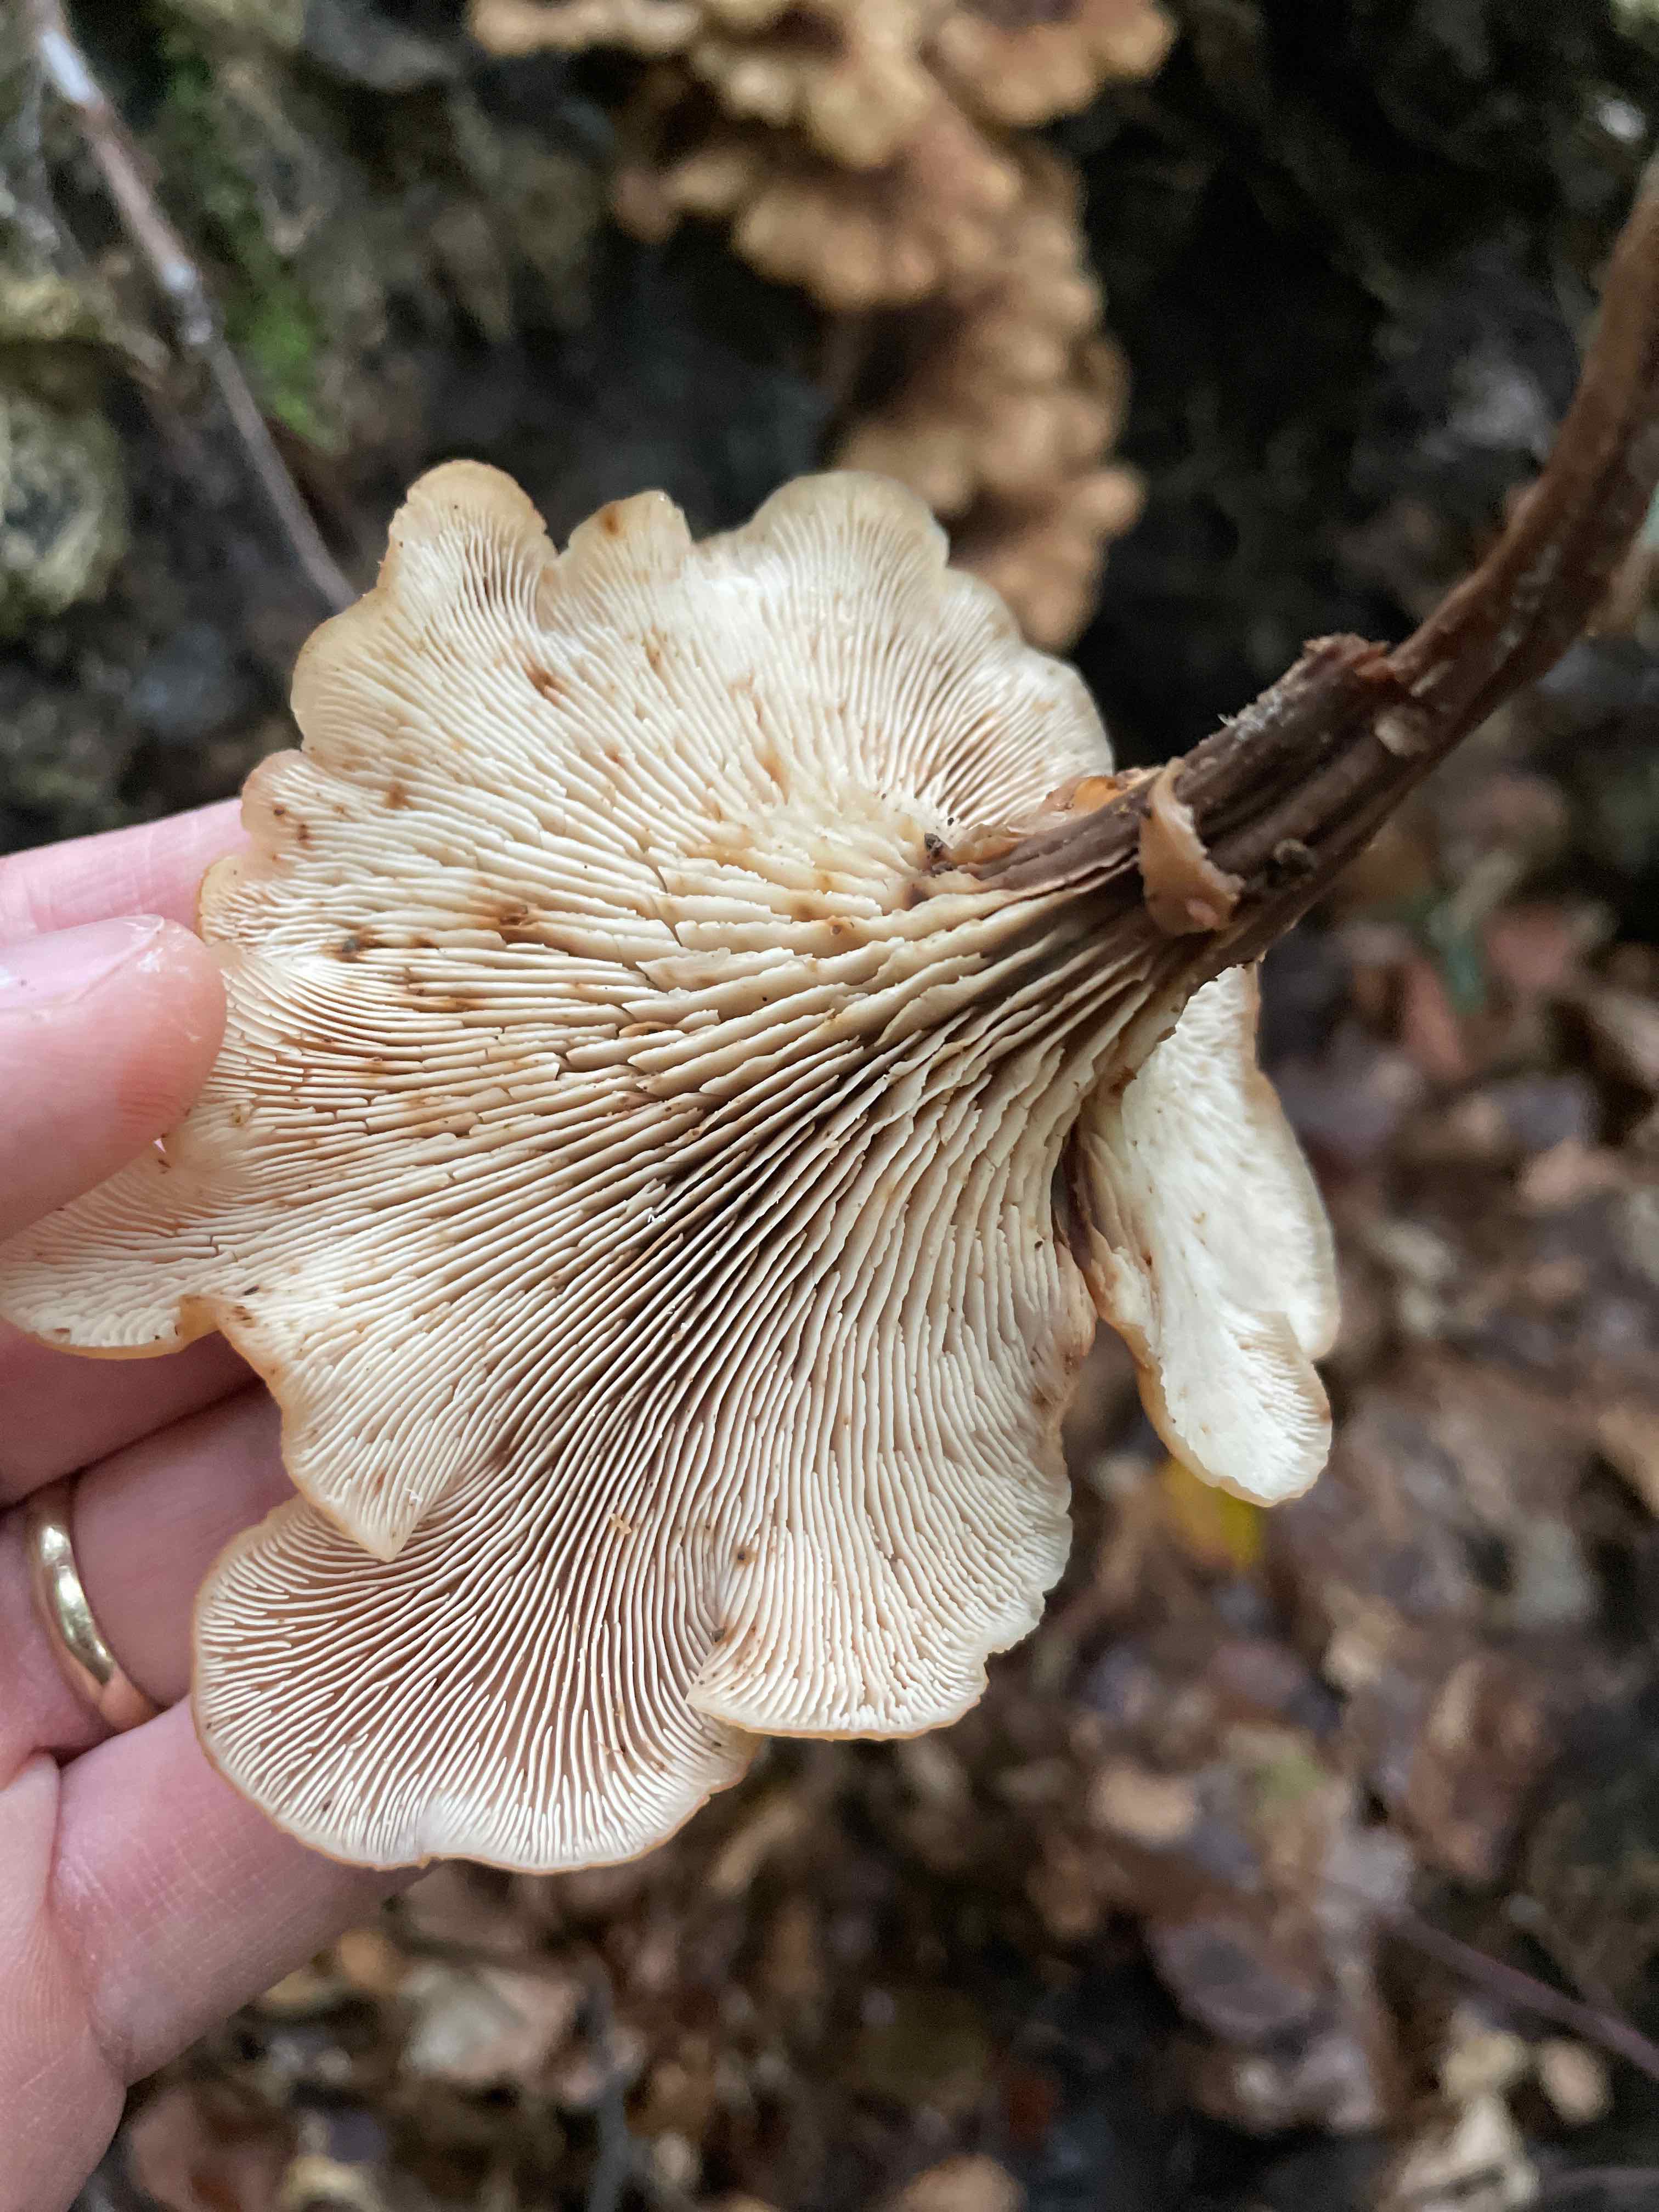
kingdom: Fungi
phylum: Basidiomycota
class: Agaricomycetes
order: Russulales
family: Auriscalpiaceae
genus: Lentinellus
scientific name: Lentinellus cochleatus
